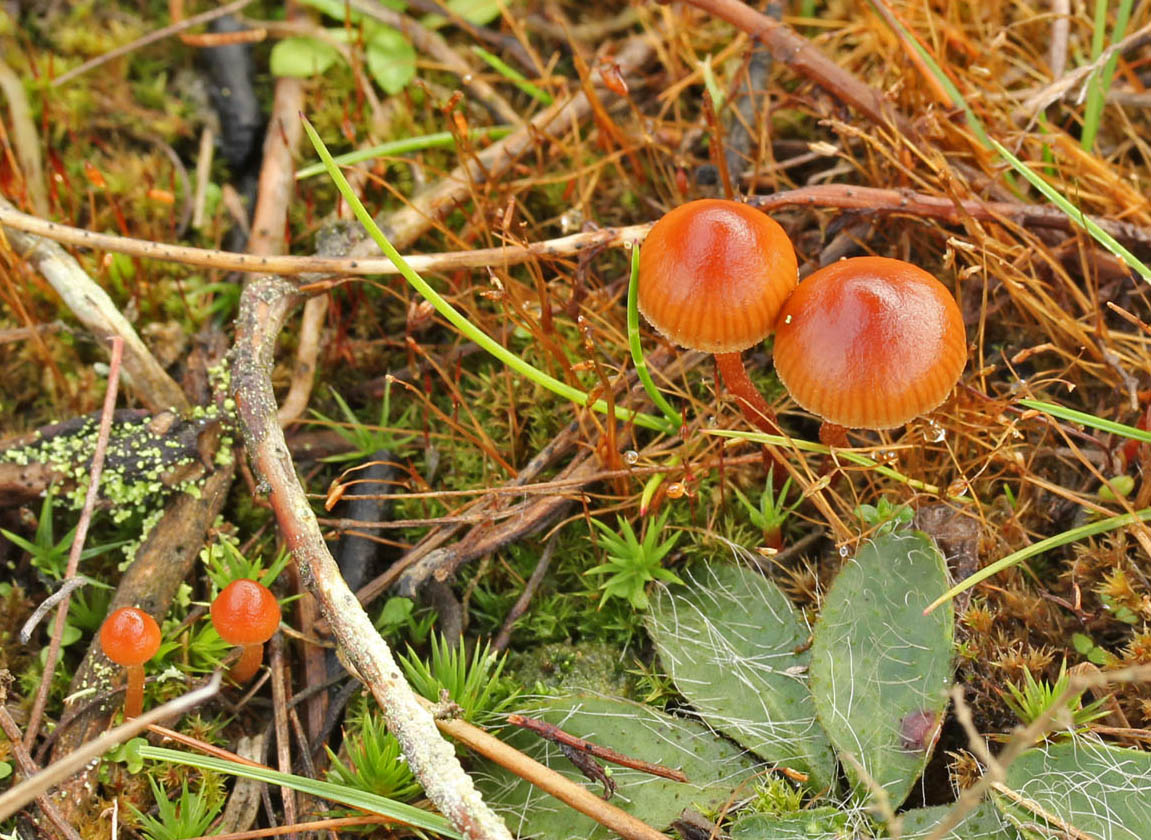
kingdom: Fungi
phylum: Basidiomycota
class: Agaricomycetes
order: Agaricales
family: Hymenogastraceae
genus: Psilocybe
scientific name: Psilocybe subviscida
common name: puklet stråhat
